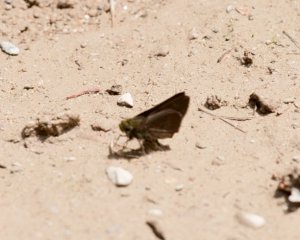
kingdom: Animalia
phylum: Arthropoda
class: Insecta
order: Lepidoptera
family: Hesperiidae
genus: Euphyes
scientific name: Euphyes vestris
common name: Dun Skipper
